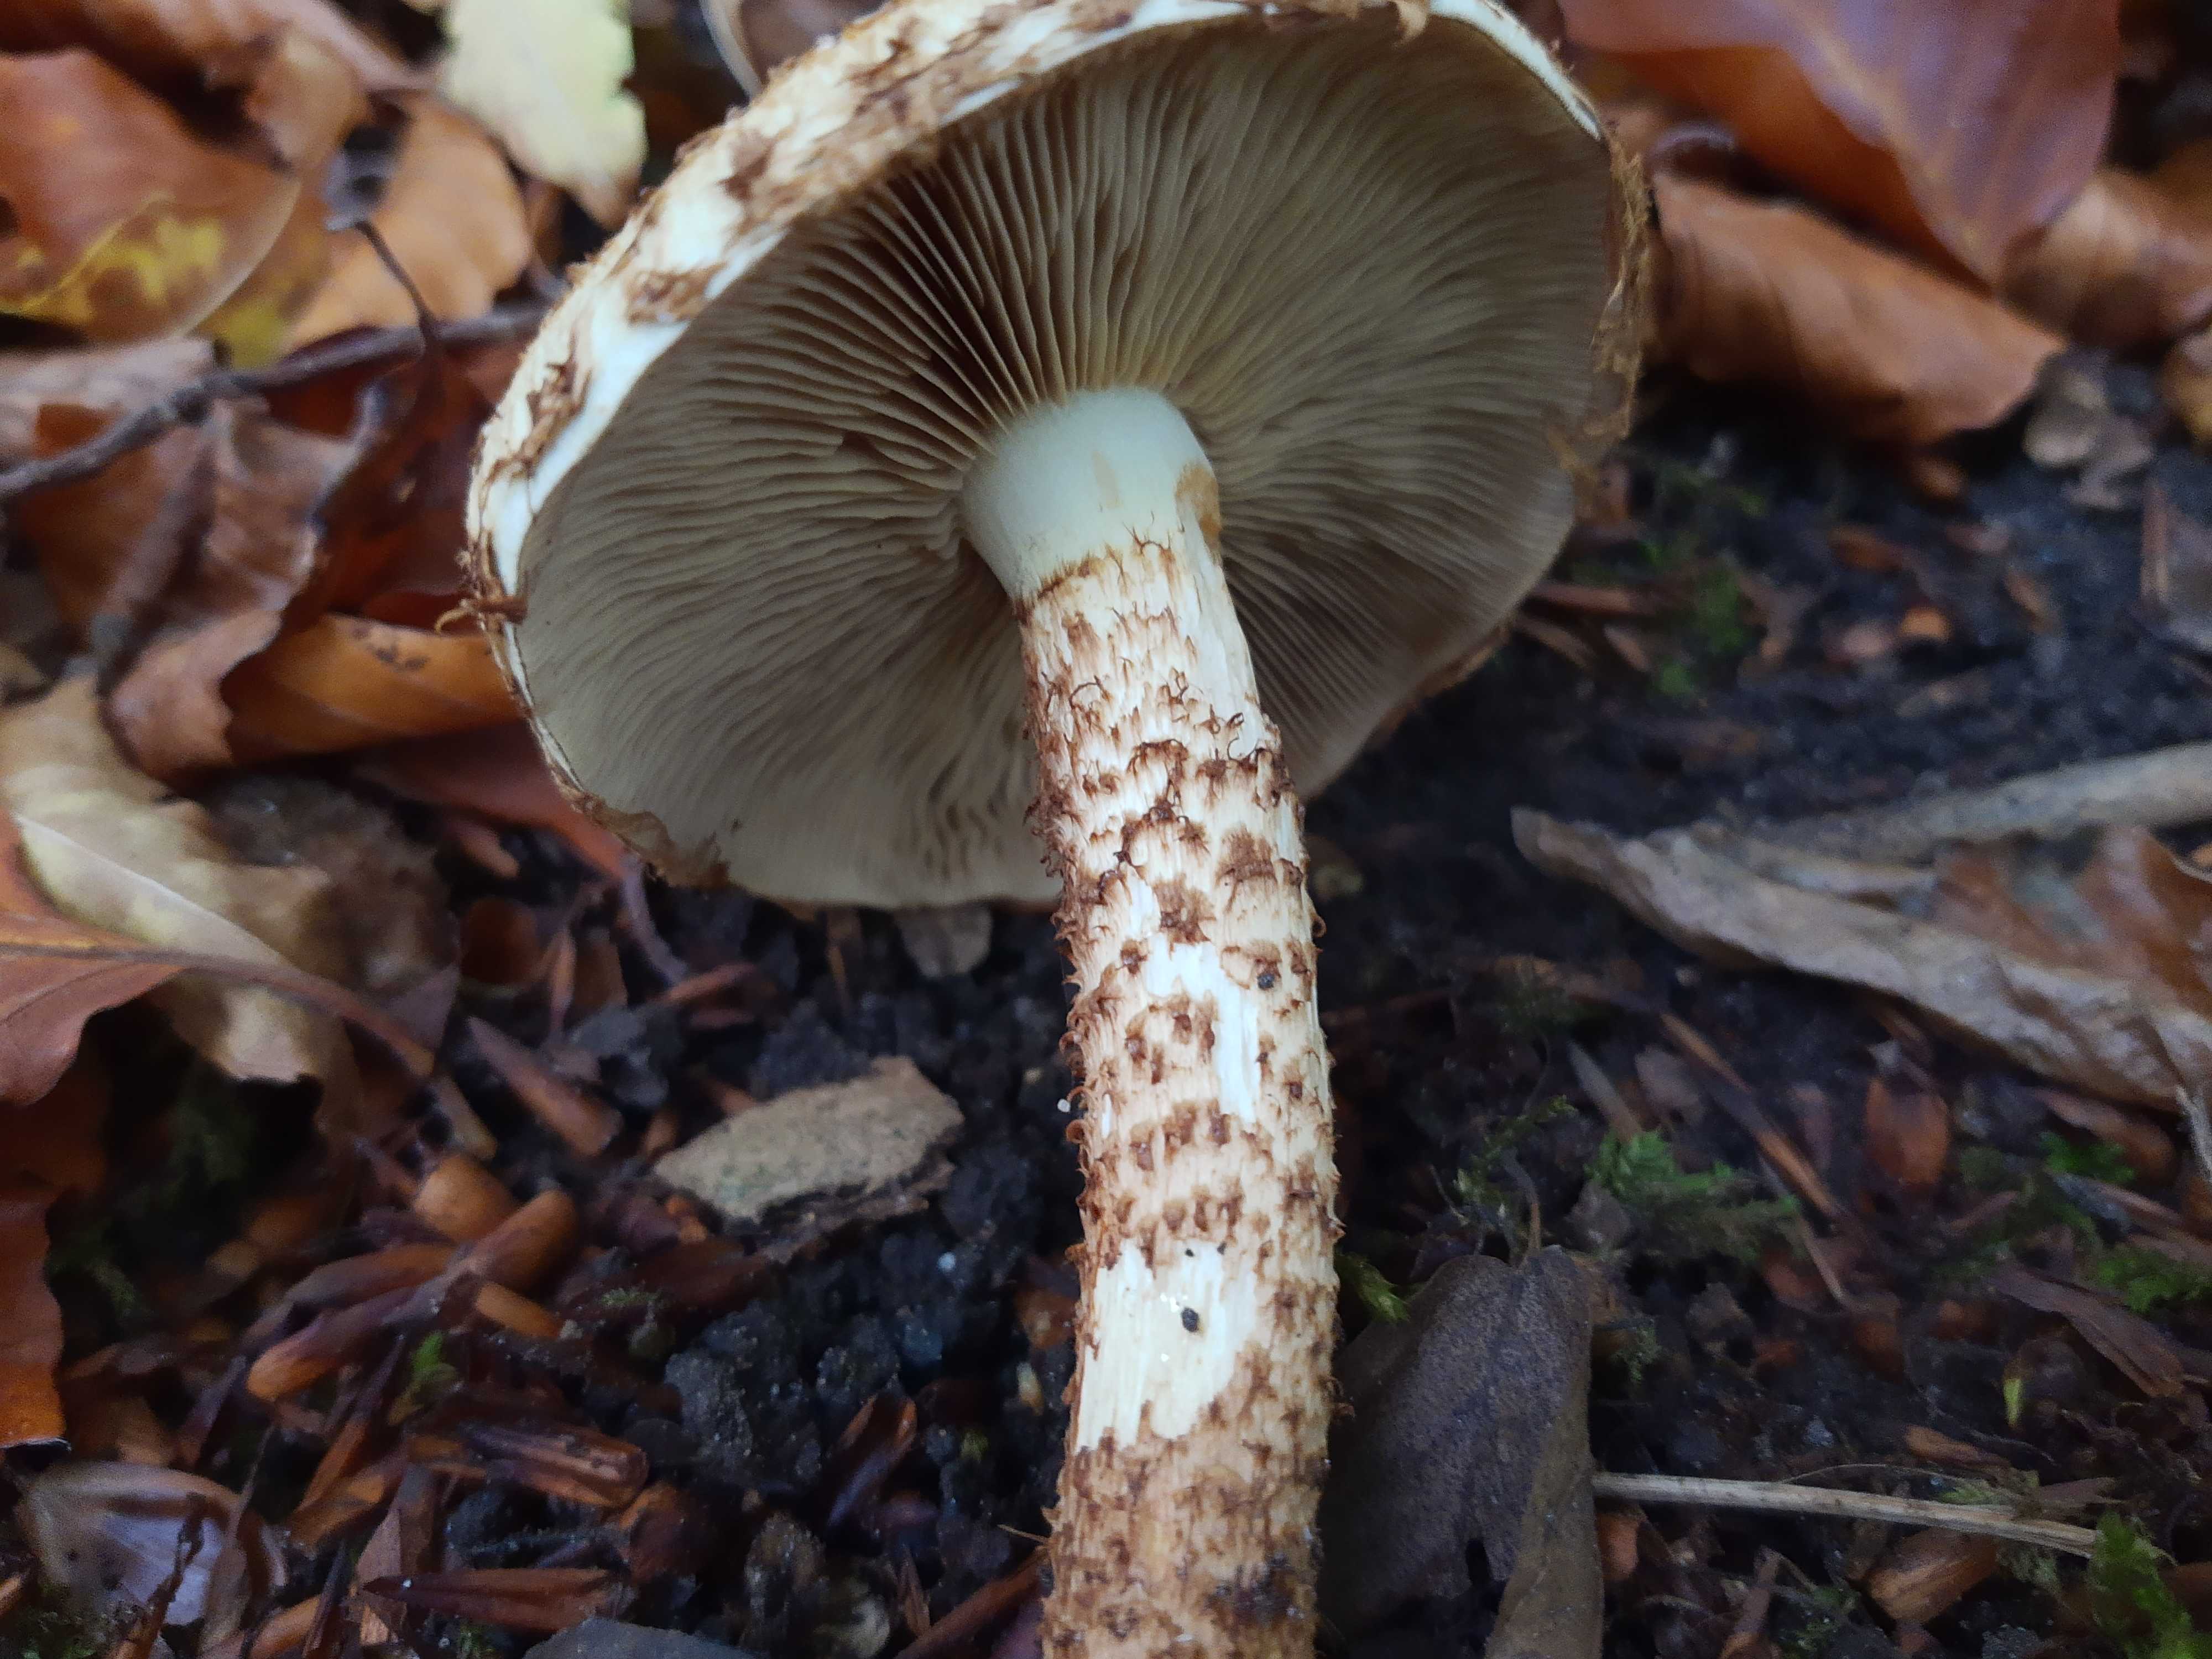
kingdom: Fungi
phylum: Basidiomycota
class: Agaricomycetes
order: Agaricales
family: Strophariaceae
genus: Pholiota
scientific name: Pholiota squarrosa
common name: krumskællet skælhat
